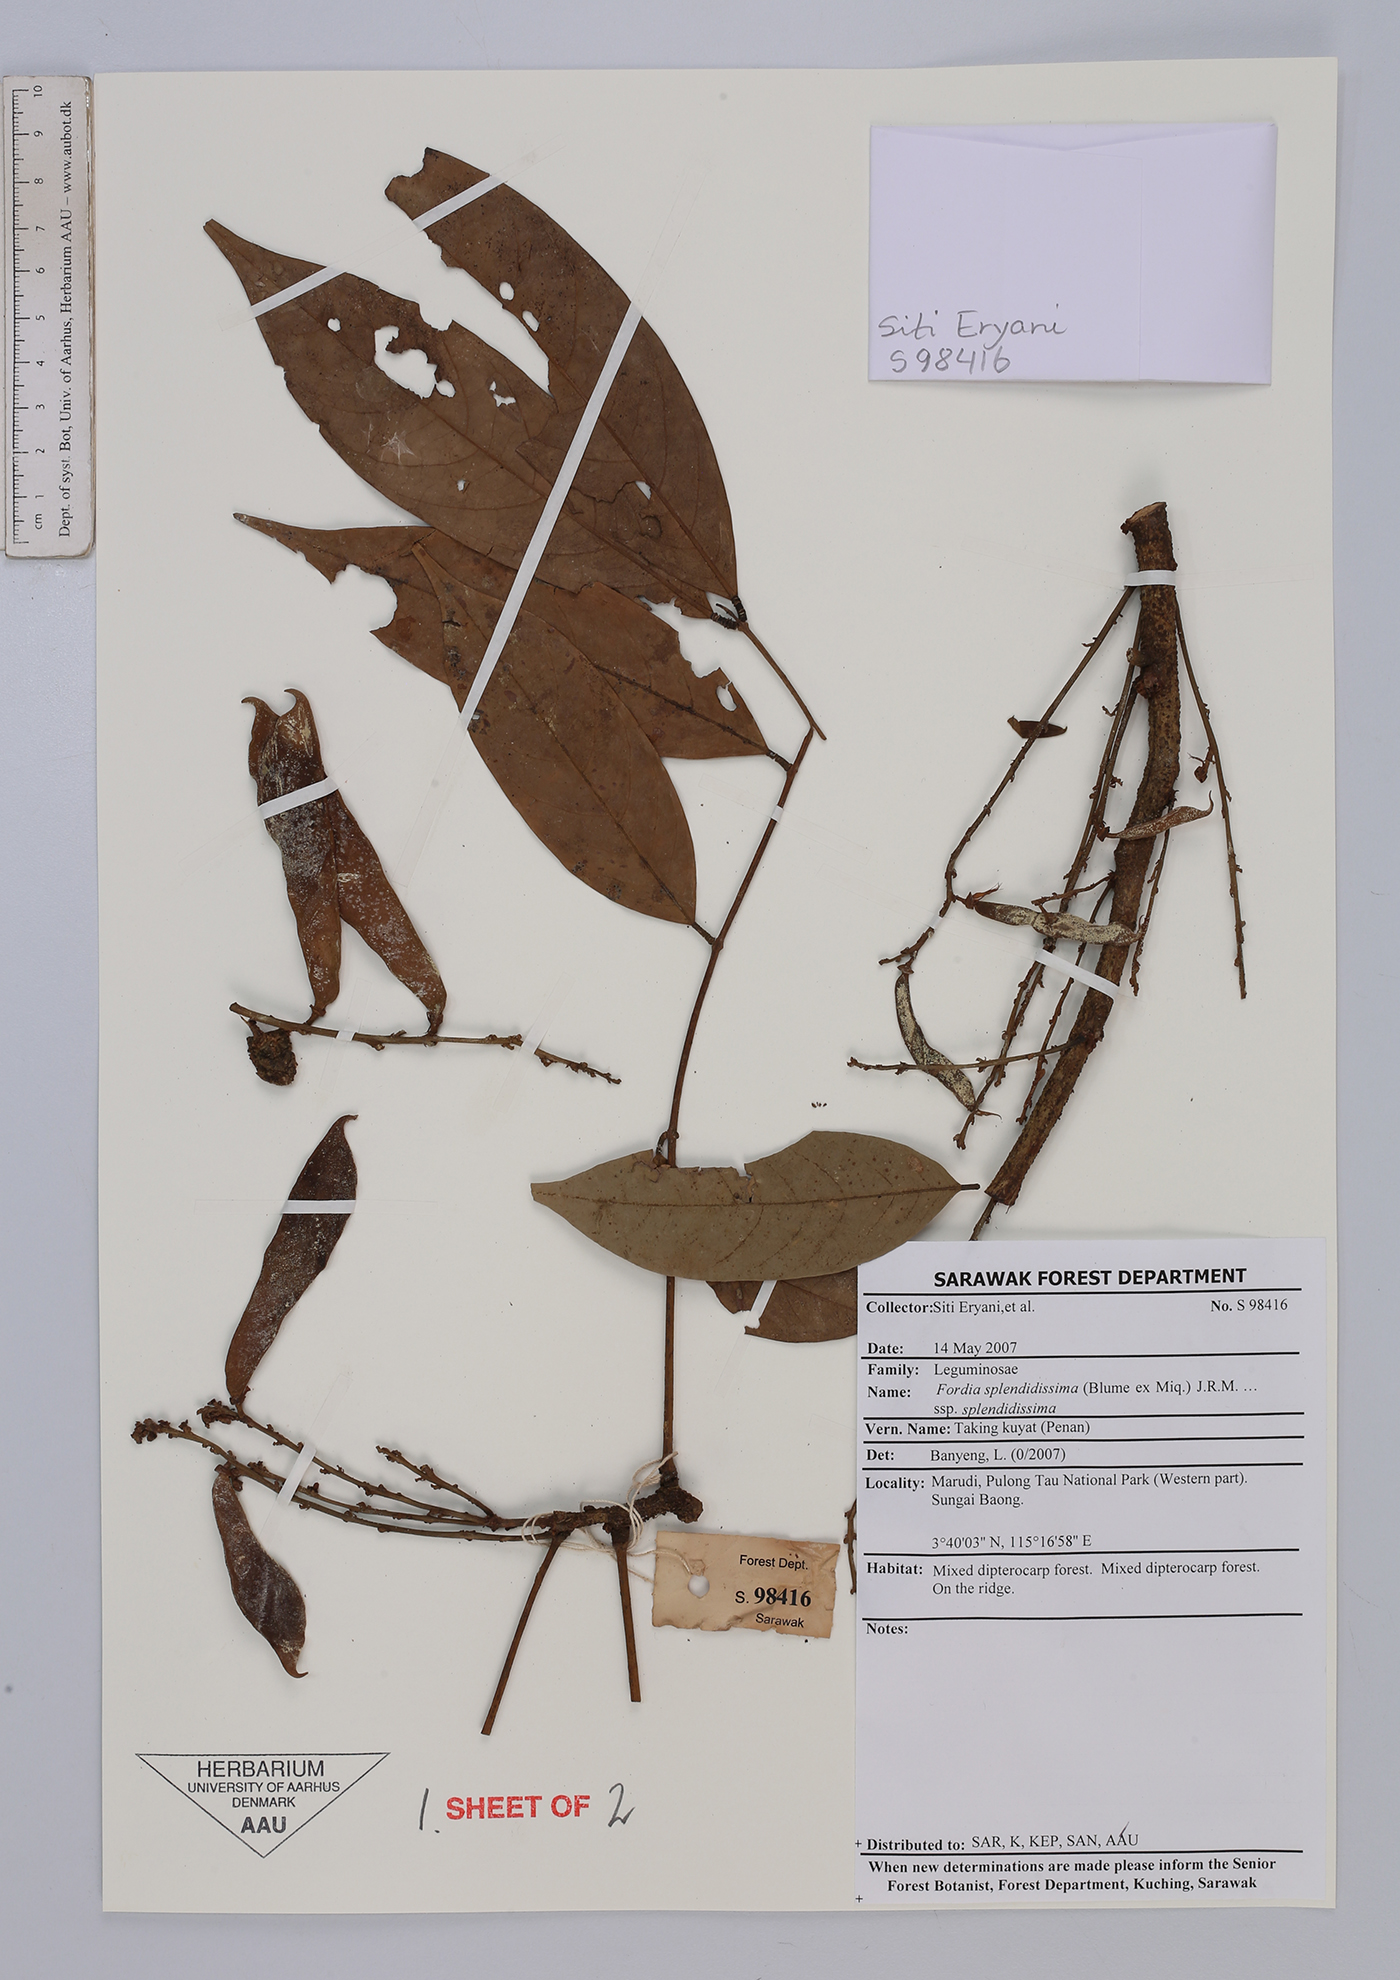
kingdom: Plantae
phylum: Tracheophyta
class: Magnoliopsida
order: Fabales
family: Fabaceae
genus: Fordia
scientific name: Fordia splendidissima
